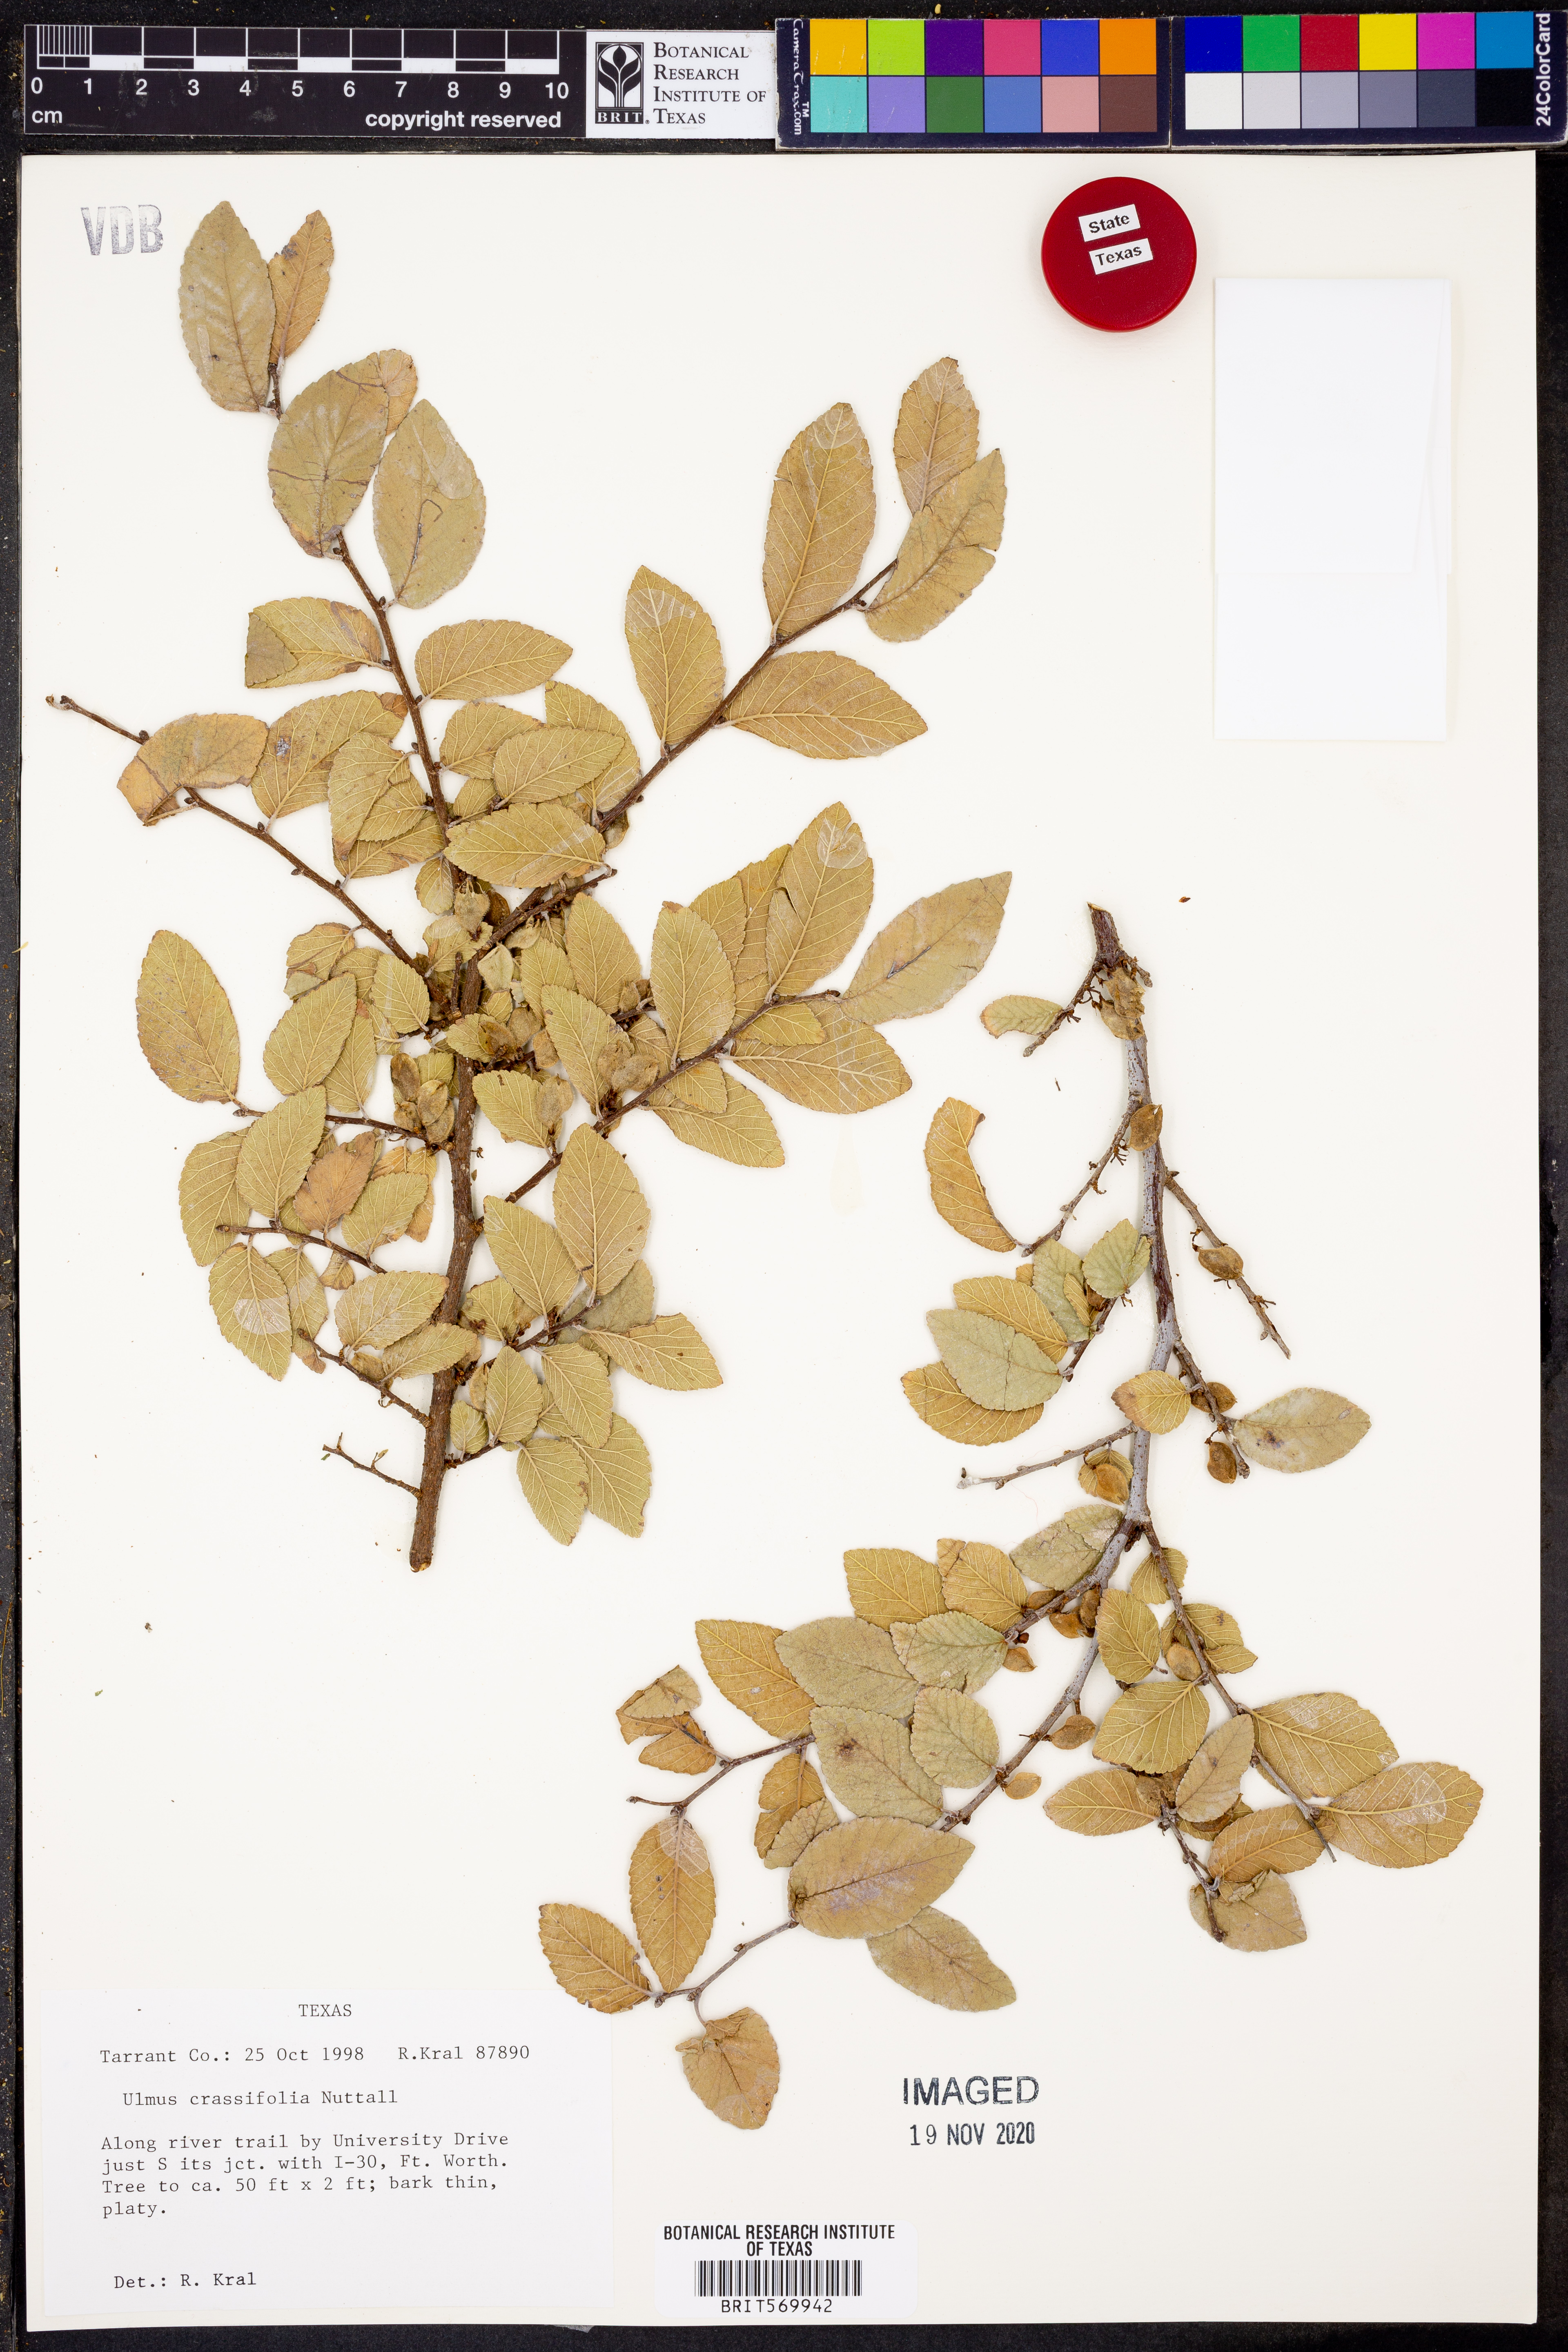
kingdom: Plantae
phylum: Tracheophyta
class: Magnoliopsida
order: Rosales
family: Ulmaceae
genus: Ulmus
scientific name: Ulmus crassifolia
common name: Basket elm
